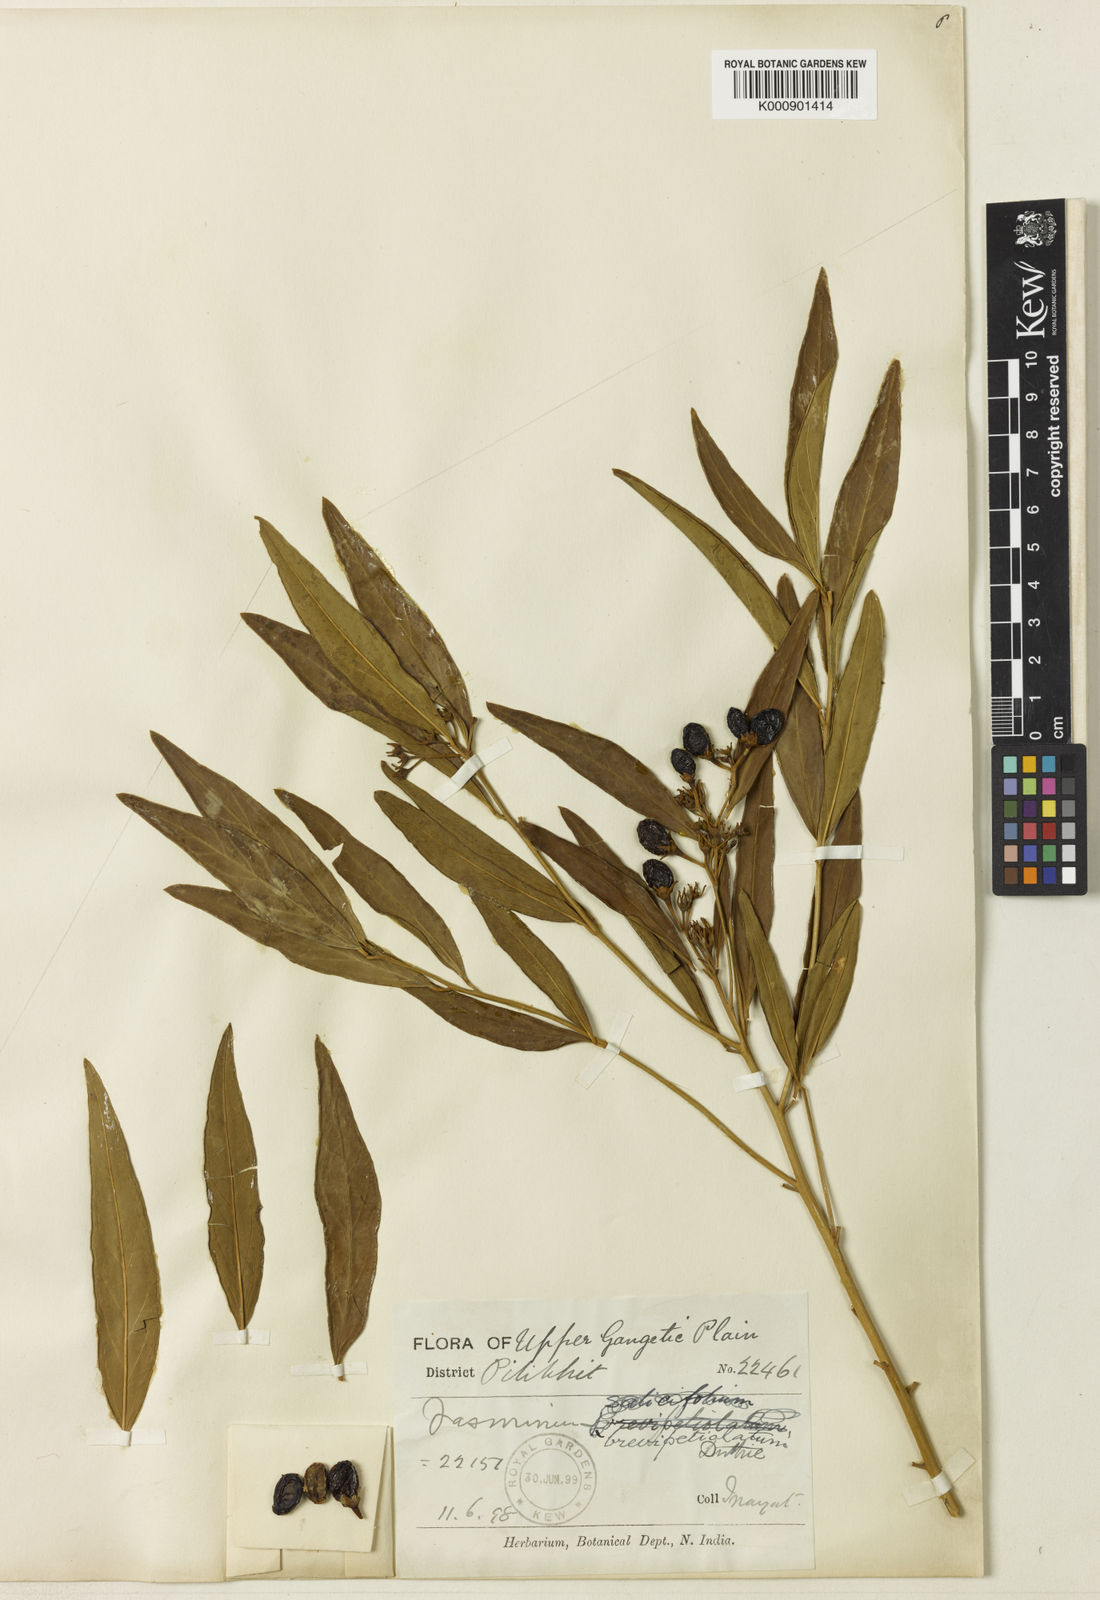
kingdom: Plantae
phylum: Tracheophyta
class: Magnoliopsida
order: Lamiales
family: Oleaceae
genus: Jasminum
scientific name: Jasminum
